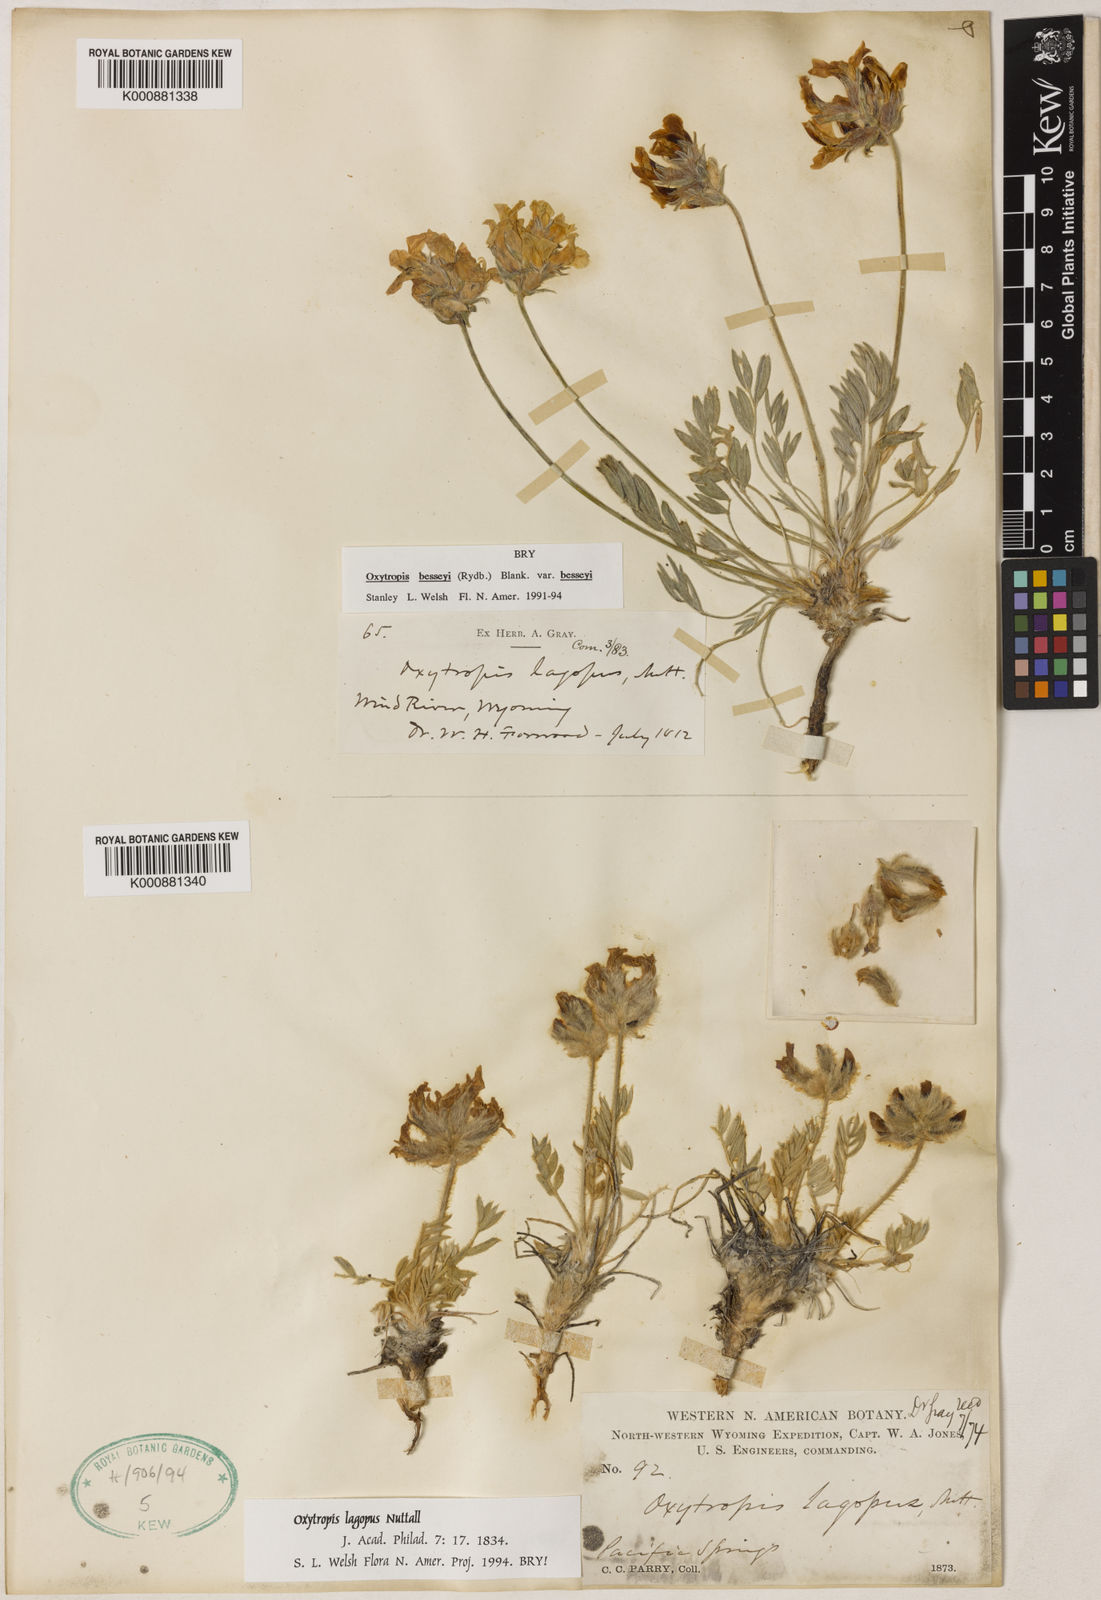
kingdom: Plantae
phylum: Tracheophyta
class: Magnoliopsida
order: Fabales
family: Fabaceae
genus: Oxytropis
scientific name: Oxytropis lagopus
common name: Hare's-foot locoweed
